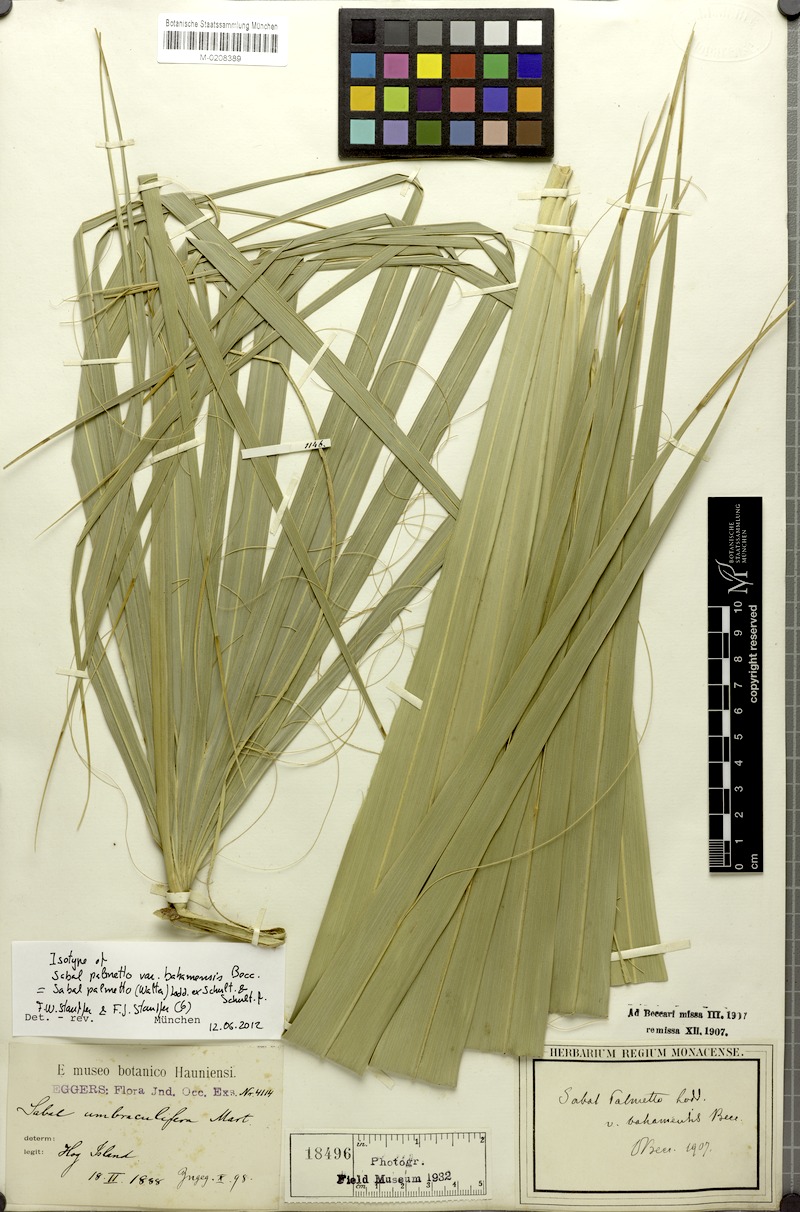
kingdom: Plantae
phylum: Tracheophyta
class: Liliopsida
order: Arecales
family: Arecaceae
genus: Sabal
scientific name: Sabal palmetto
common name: Blue palmetto
